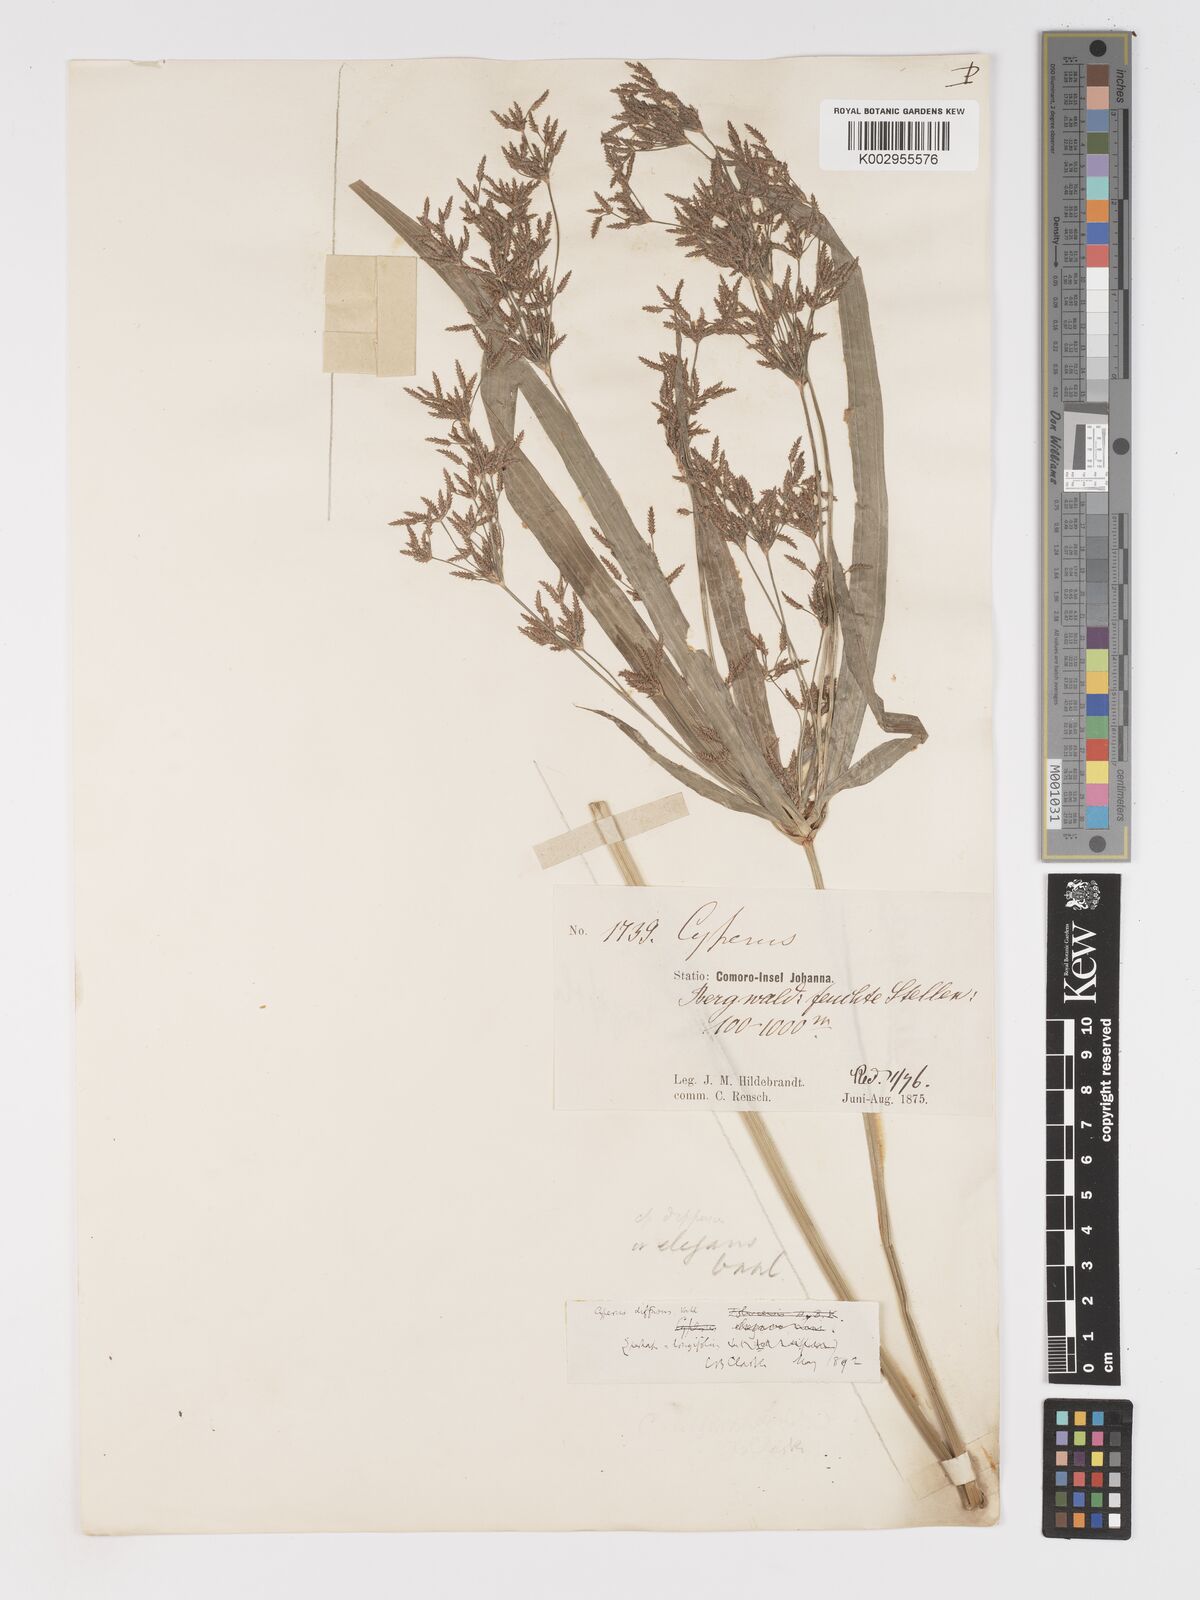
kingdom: Plantae
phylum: Tracheophyta
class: Liliopsida
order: Poales
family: Cyperaceae
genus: Cyperus
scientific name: Cyperus diffusus
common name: Dwarf umbrella grass
